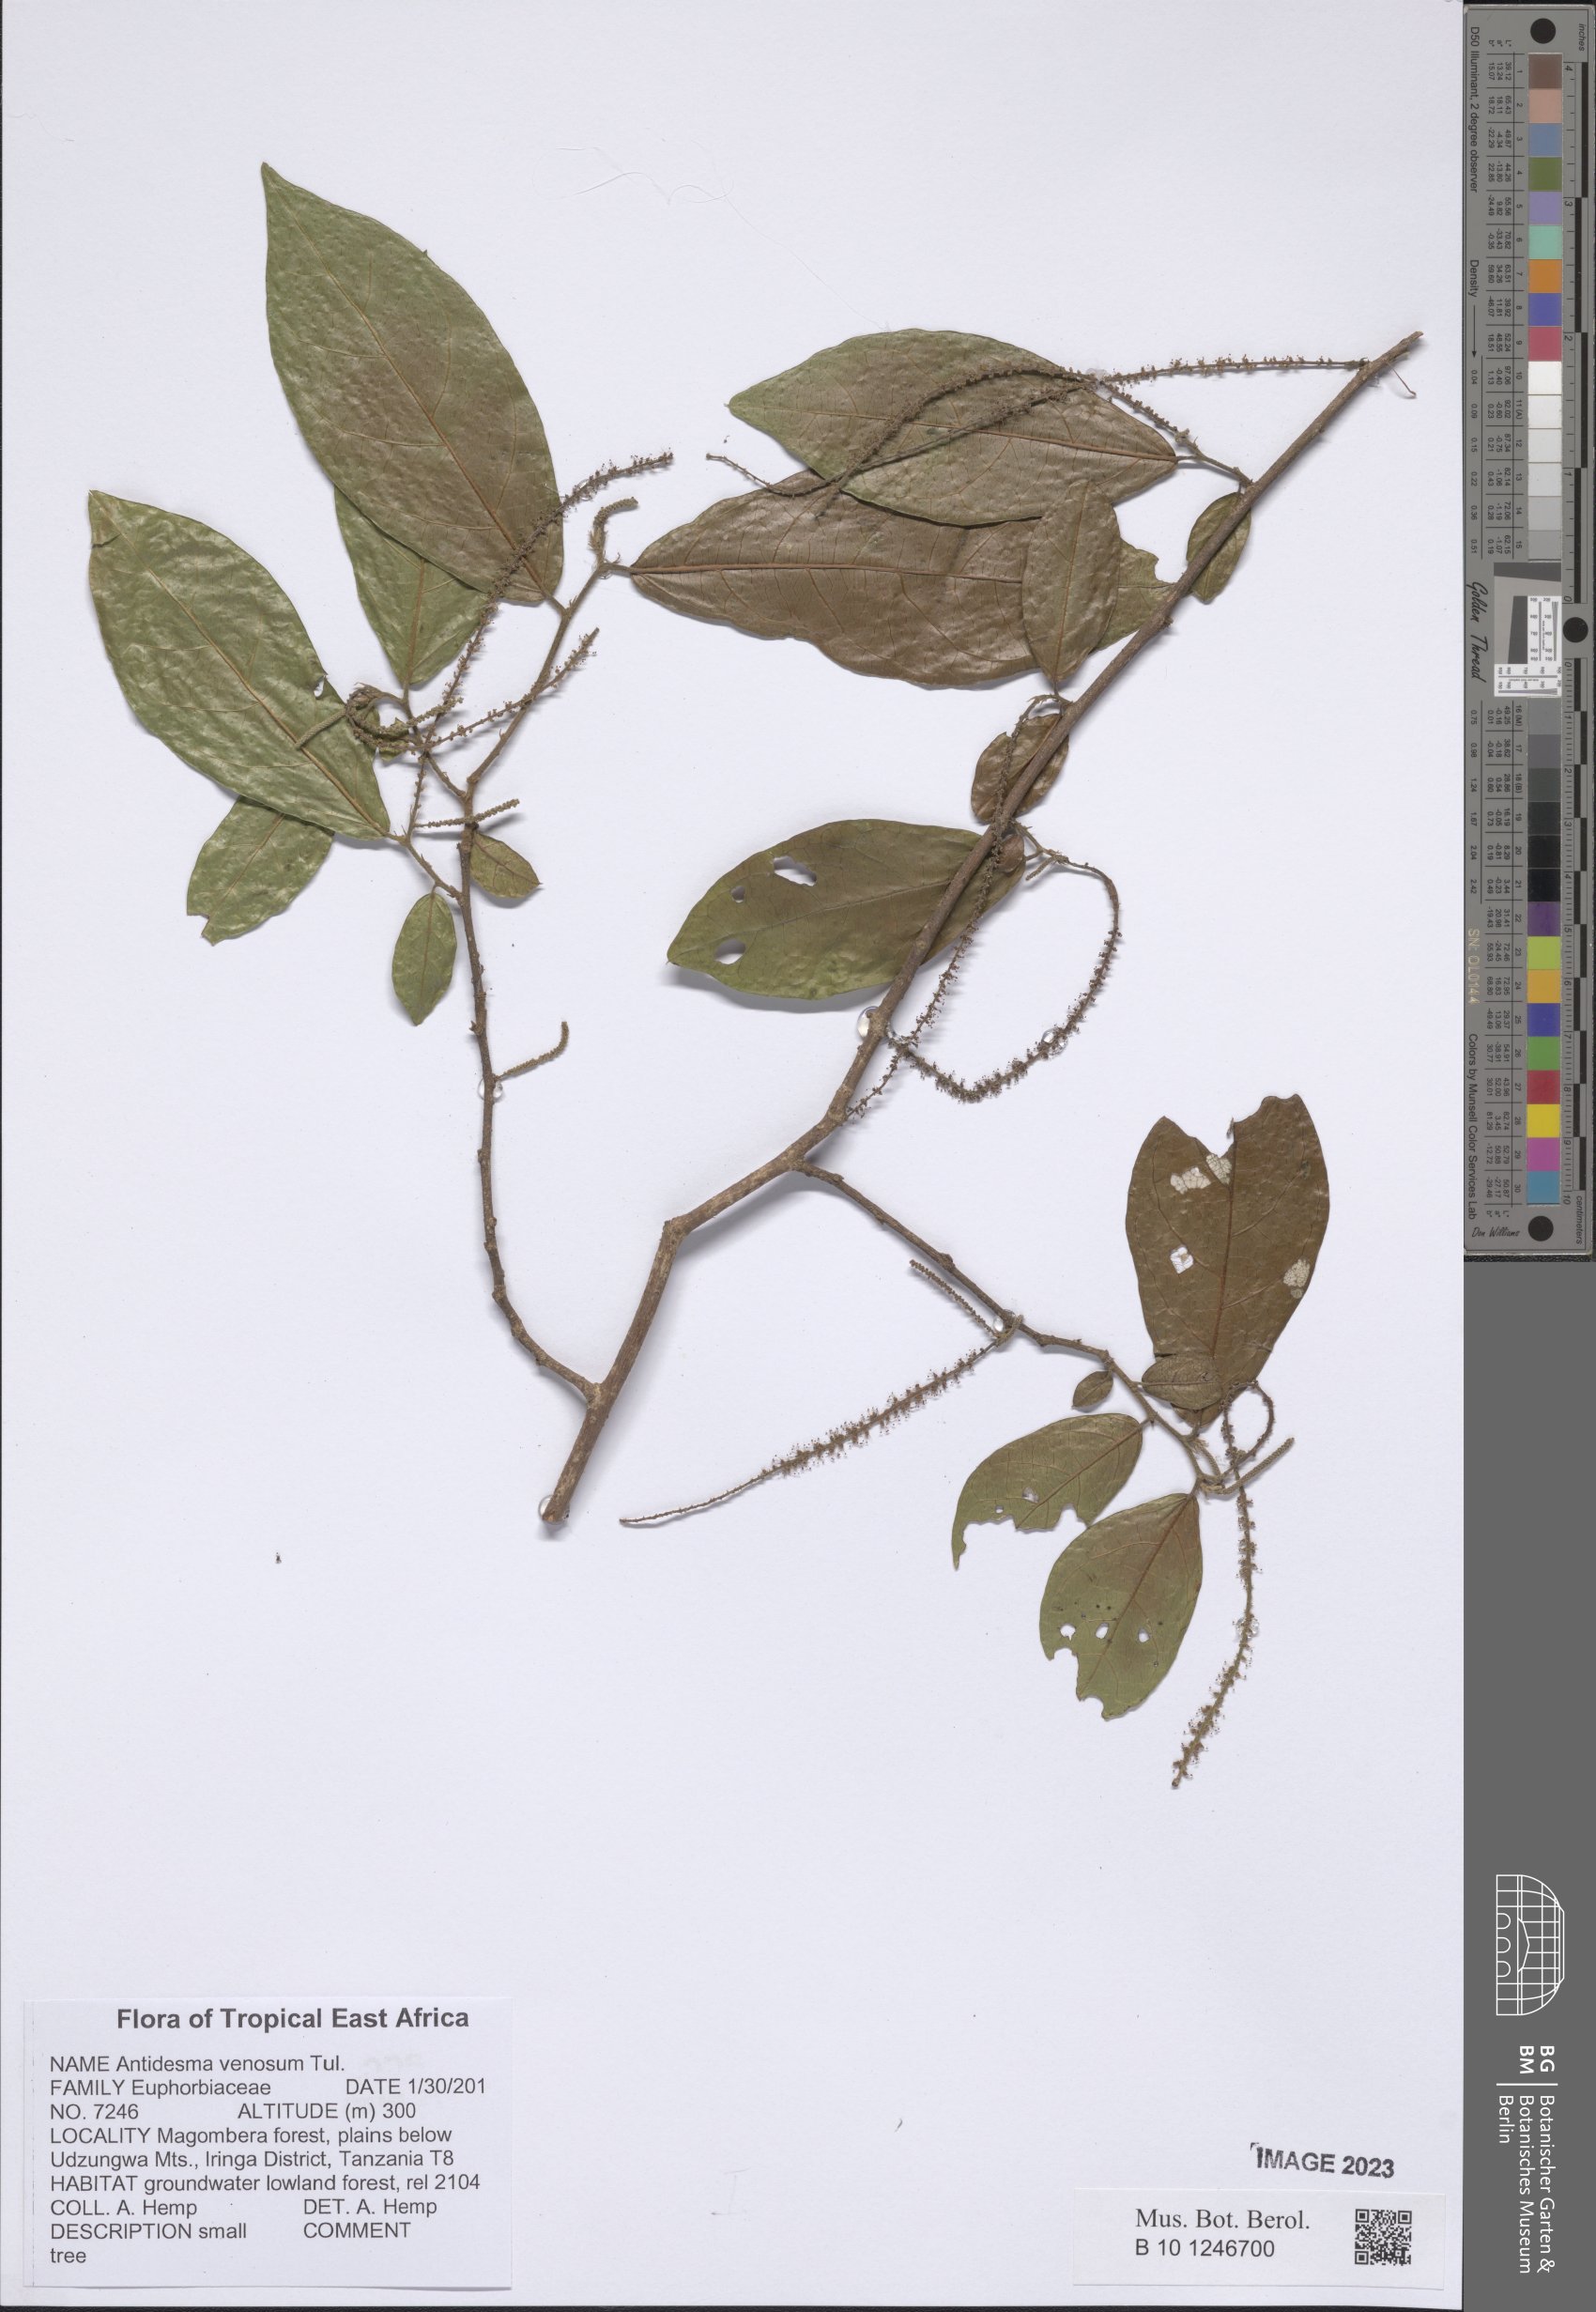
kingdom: Plantae
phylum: Tracheophyta
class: Magnoliopsida
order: Malpighiales
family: Phyllanthaceae
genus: Antidesma
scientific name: Antidesma venosum
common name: Tassel-berry
